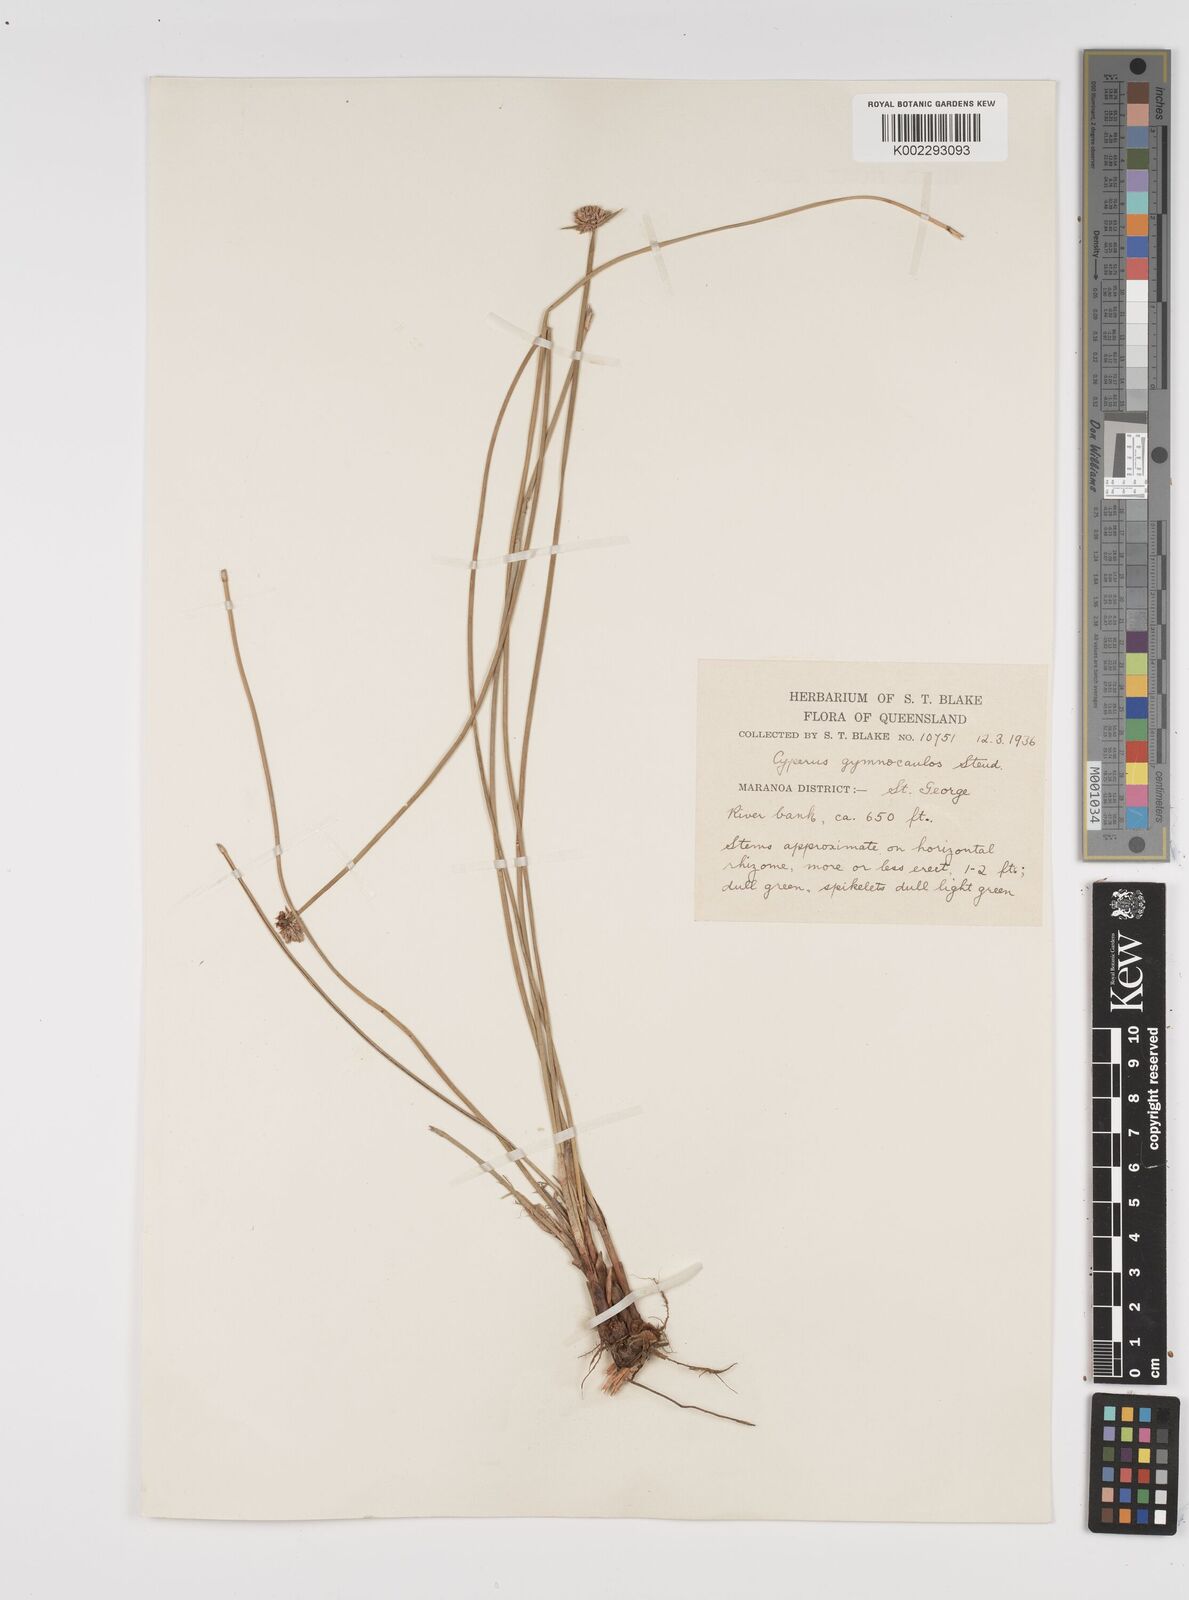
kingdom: Plantae
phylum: Tracheophyta
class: Liliopsida
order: Poales
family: Cyperaceae
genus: Cyperus
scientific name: Cyperus gymnocaulos
